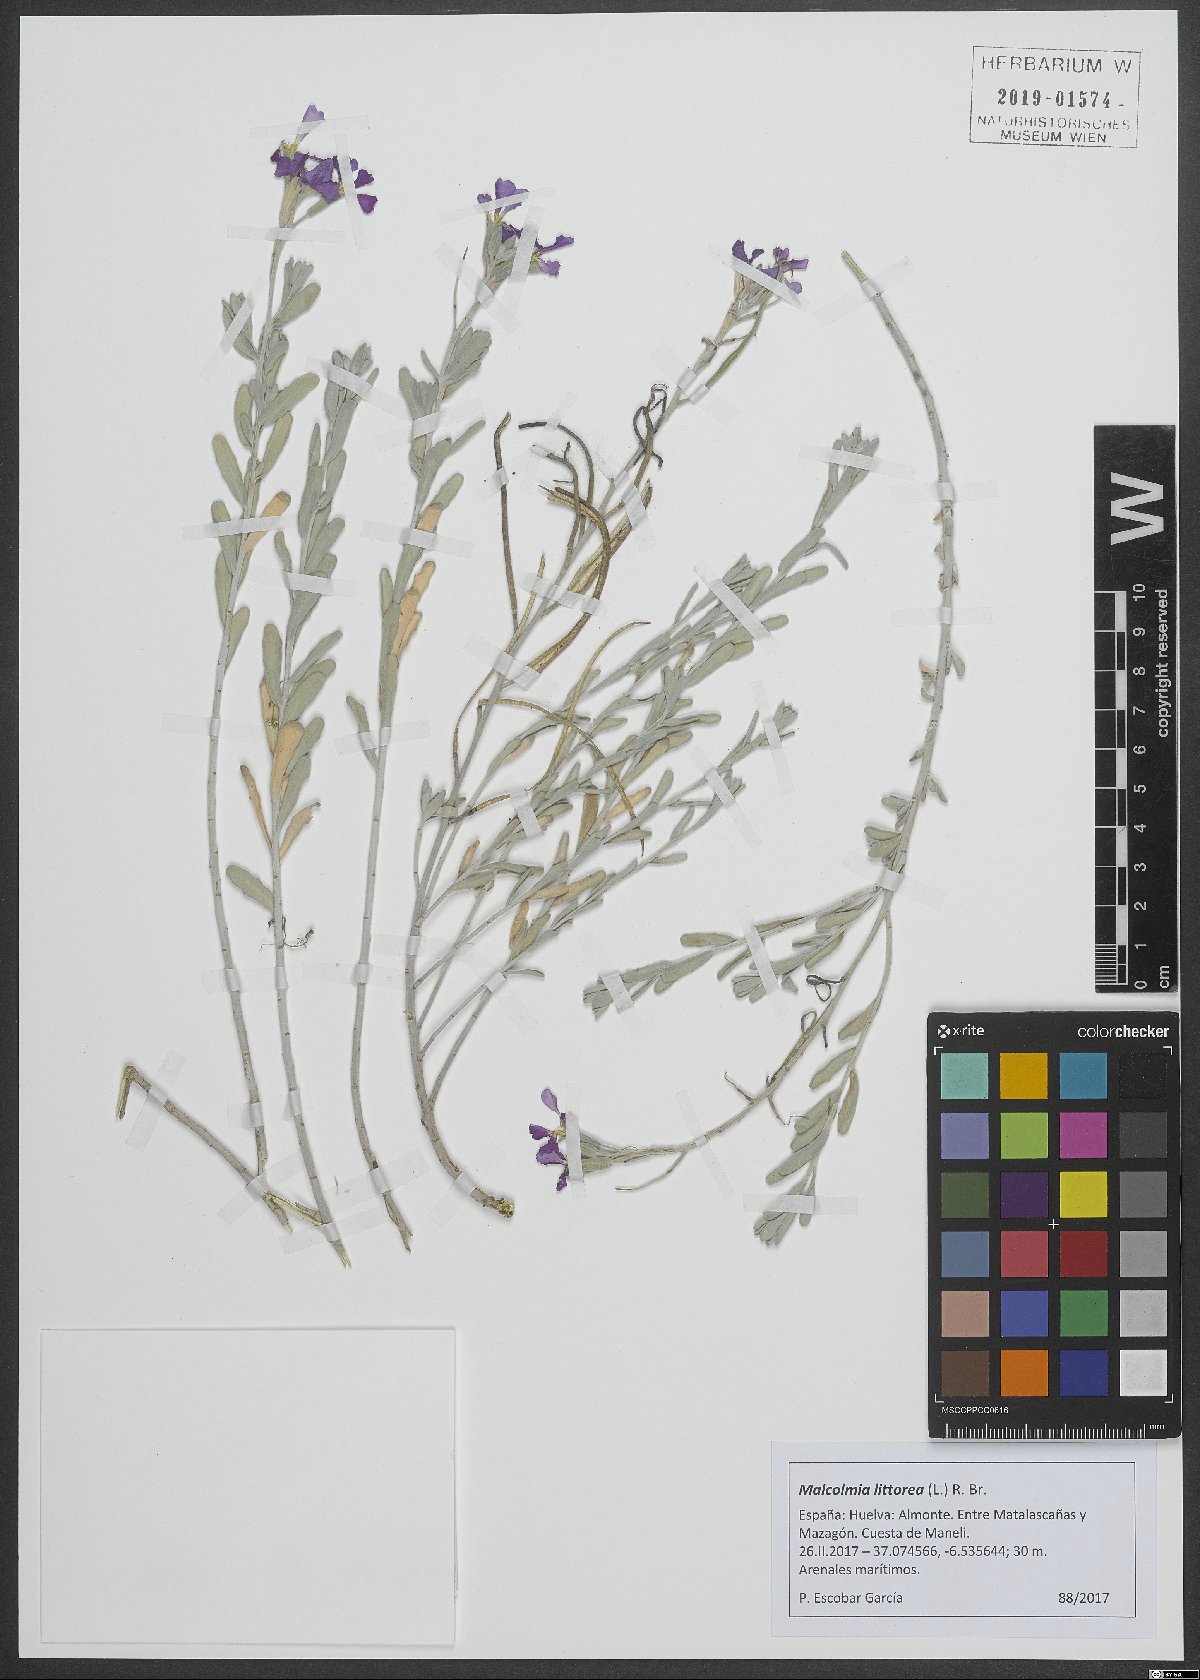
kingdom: Plantae
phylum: Tracheophyta
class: Magnoliopsida
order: Brassicales
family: Brassicaceae
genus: Marcuskochia
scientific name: Marcuskochia littorea
